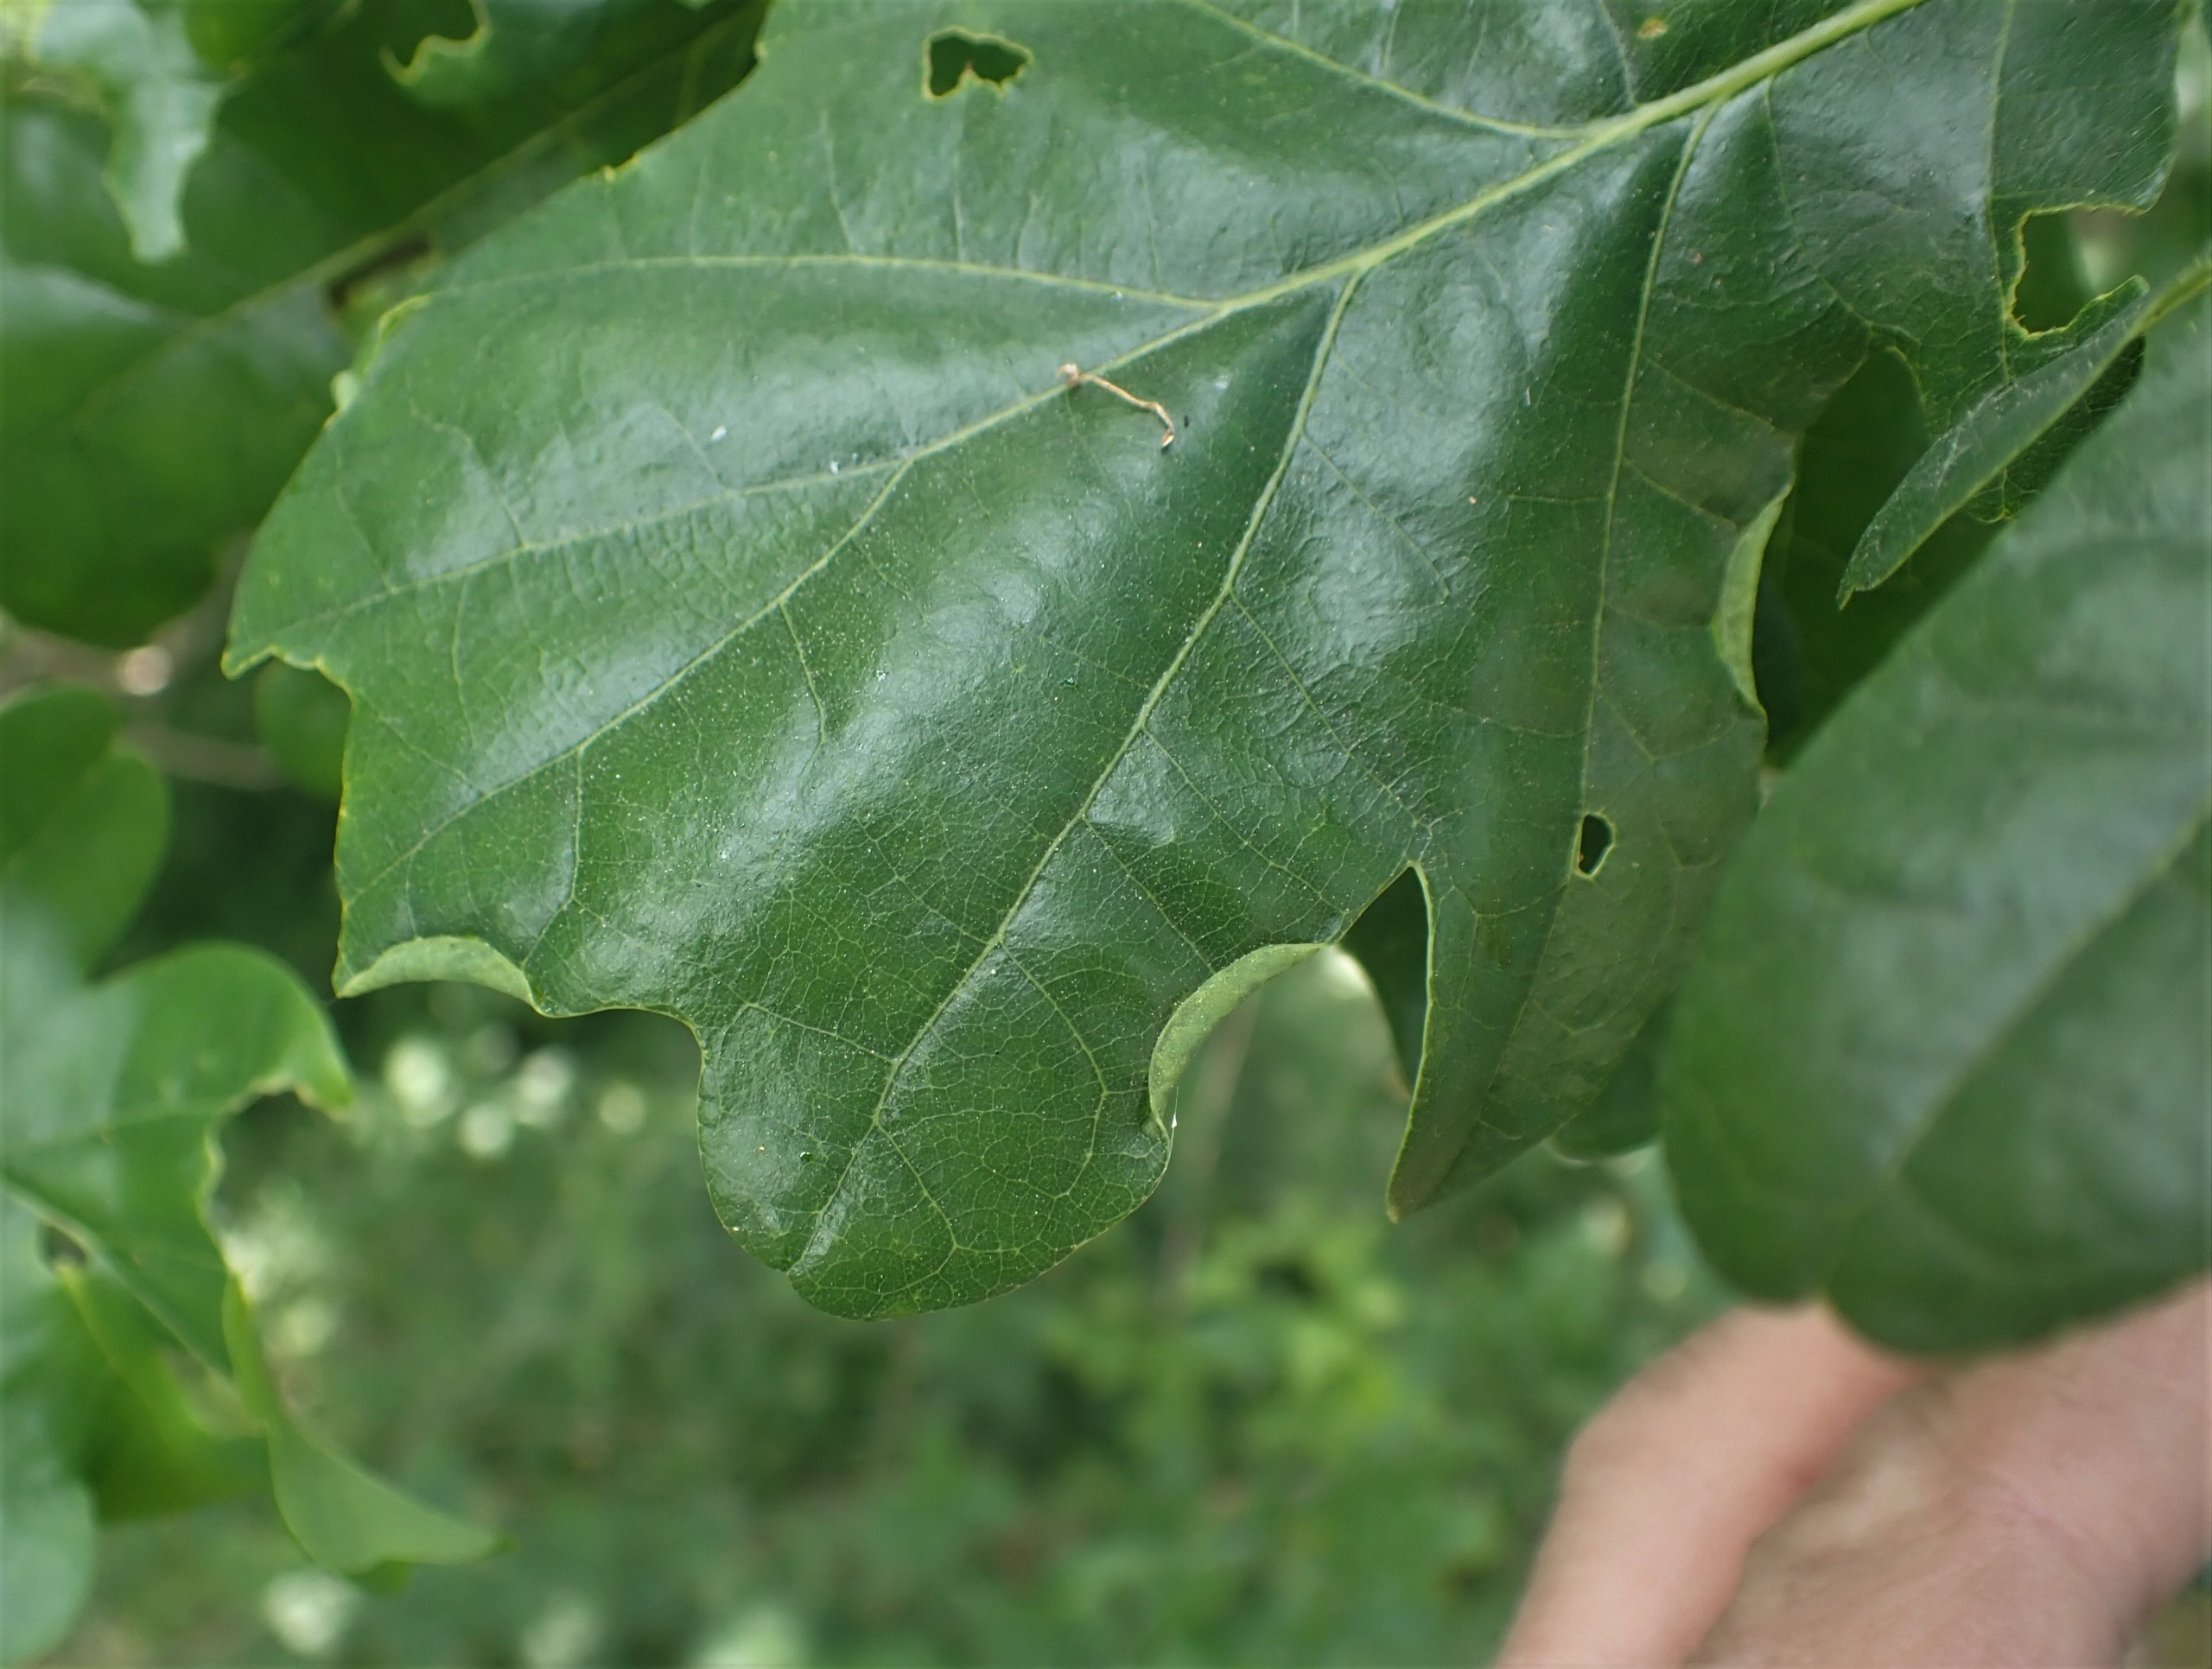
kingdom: Animalia
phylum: Arthropoda
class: Insecta
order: Diptera
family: Cecidomyiidae
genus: Macrodiplosis
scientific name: Macrodiplosis volvens
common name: Egerullegalmyg
